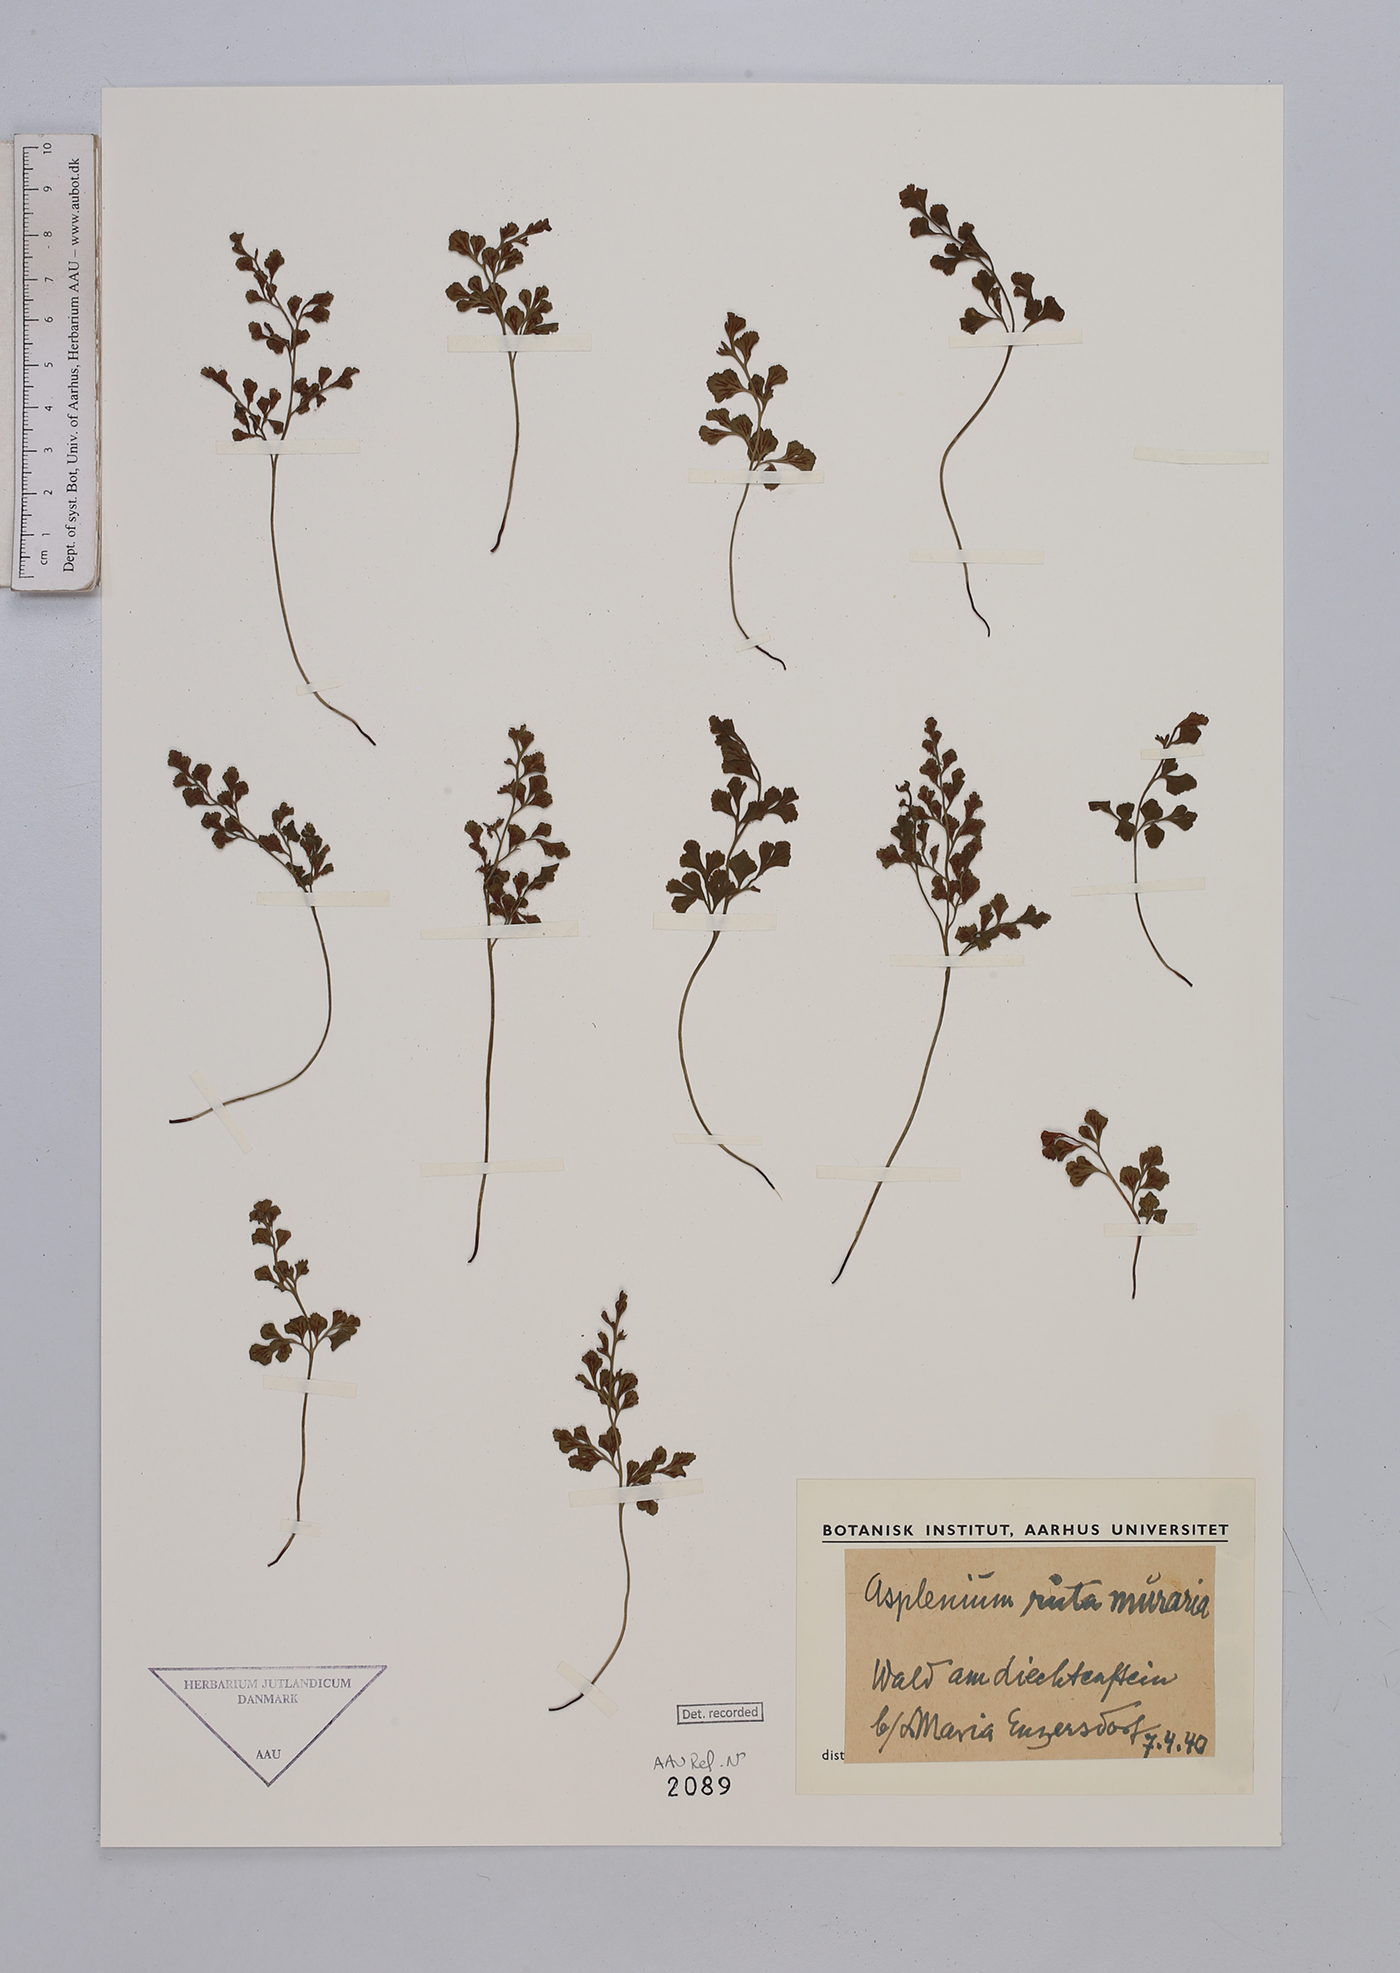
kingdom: Plantae
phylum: Tracheophyta
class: Polypodiopsida
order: Polypodiales
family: Aspleniaceae
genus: Asplenium
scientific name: Asplenium ruta-muraria
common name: Wall-rue
